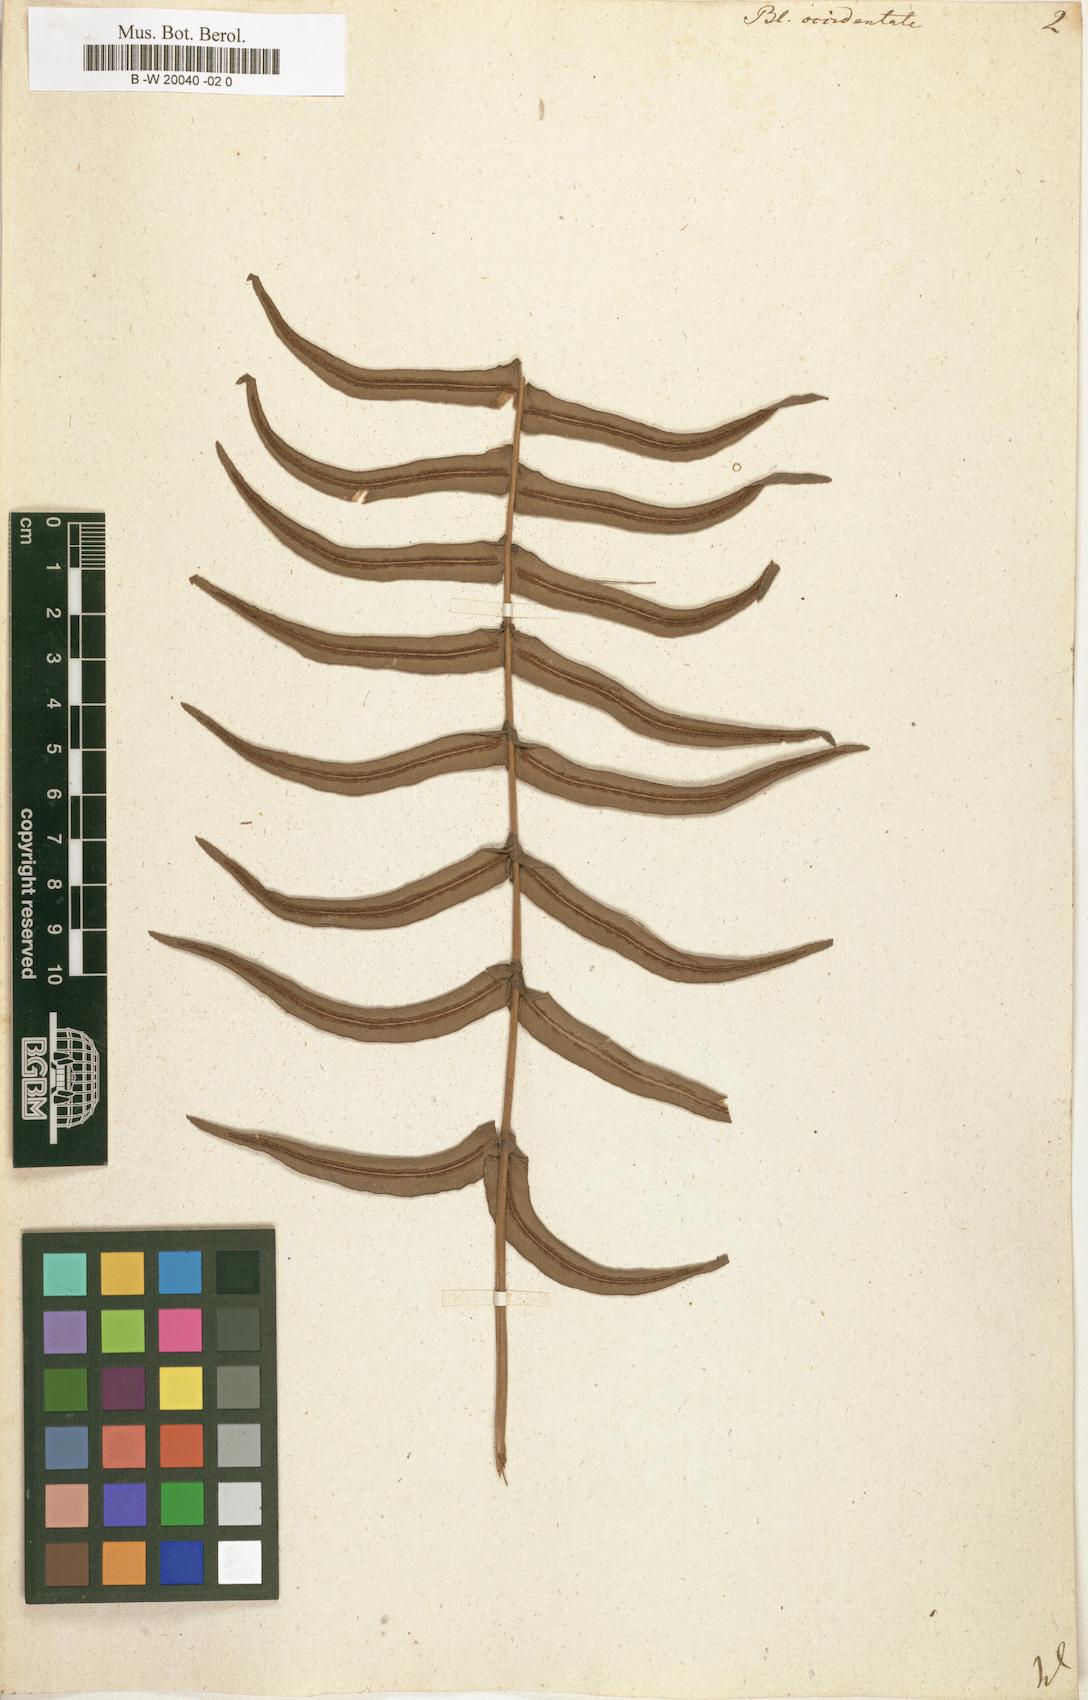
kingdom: Plantae
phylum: Tracheophyta
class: Polypodiopsida
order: Polypodiales
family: Blechnaceae
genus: Blechnum
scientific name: Blechnum occidentale
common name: Hammock fern
